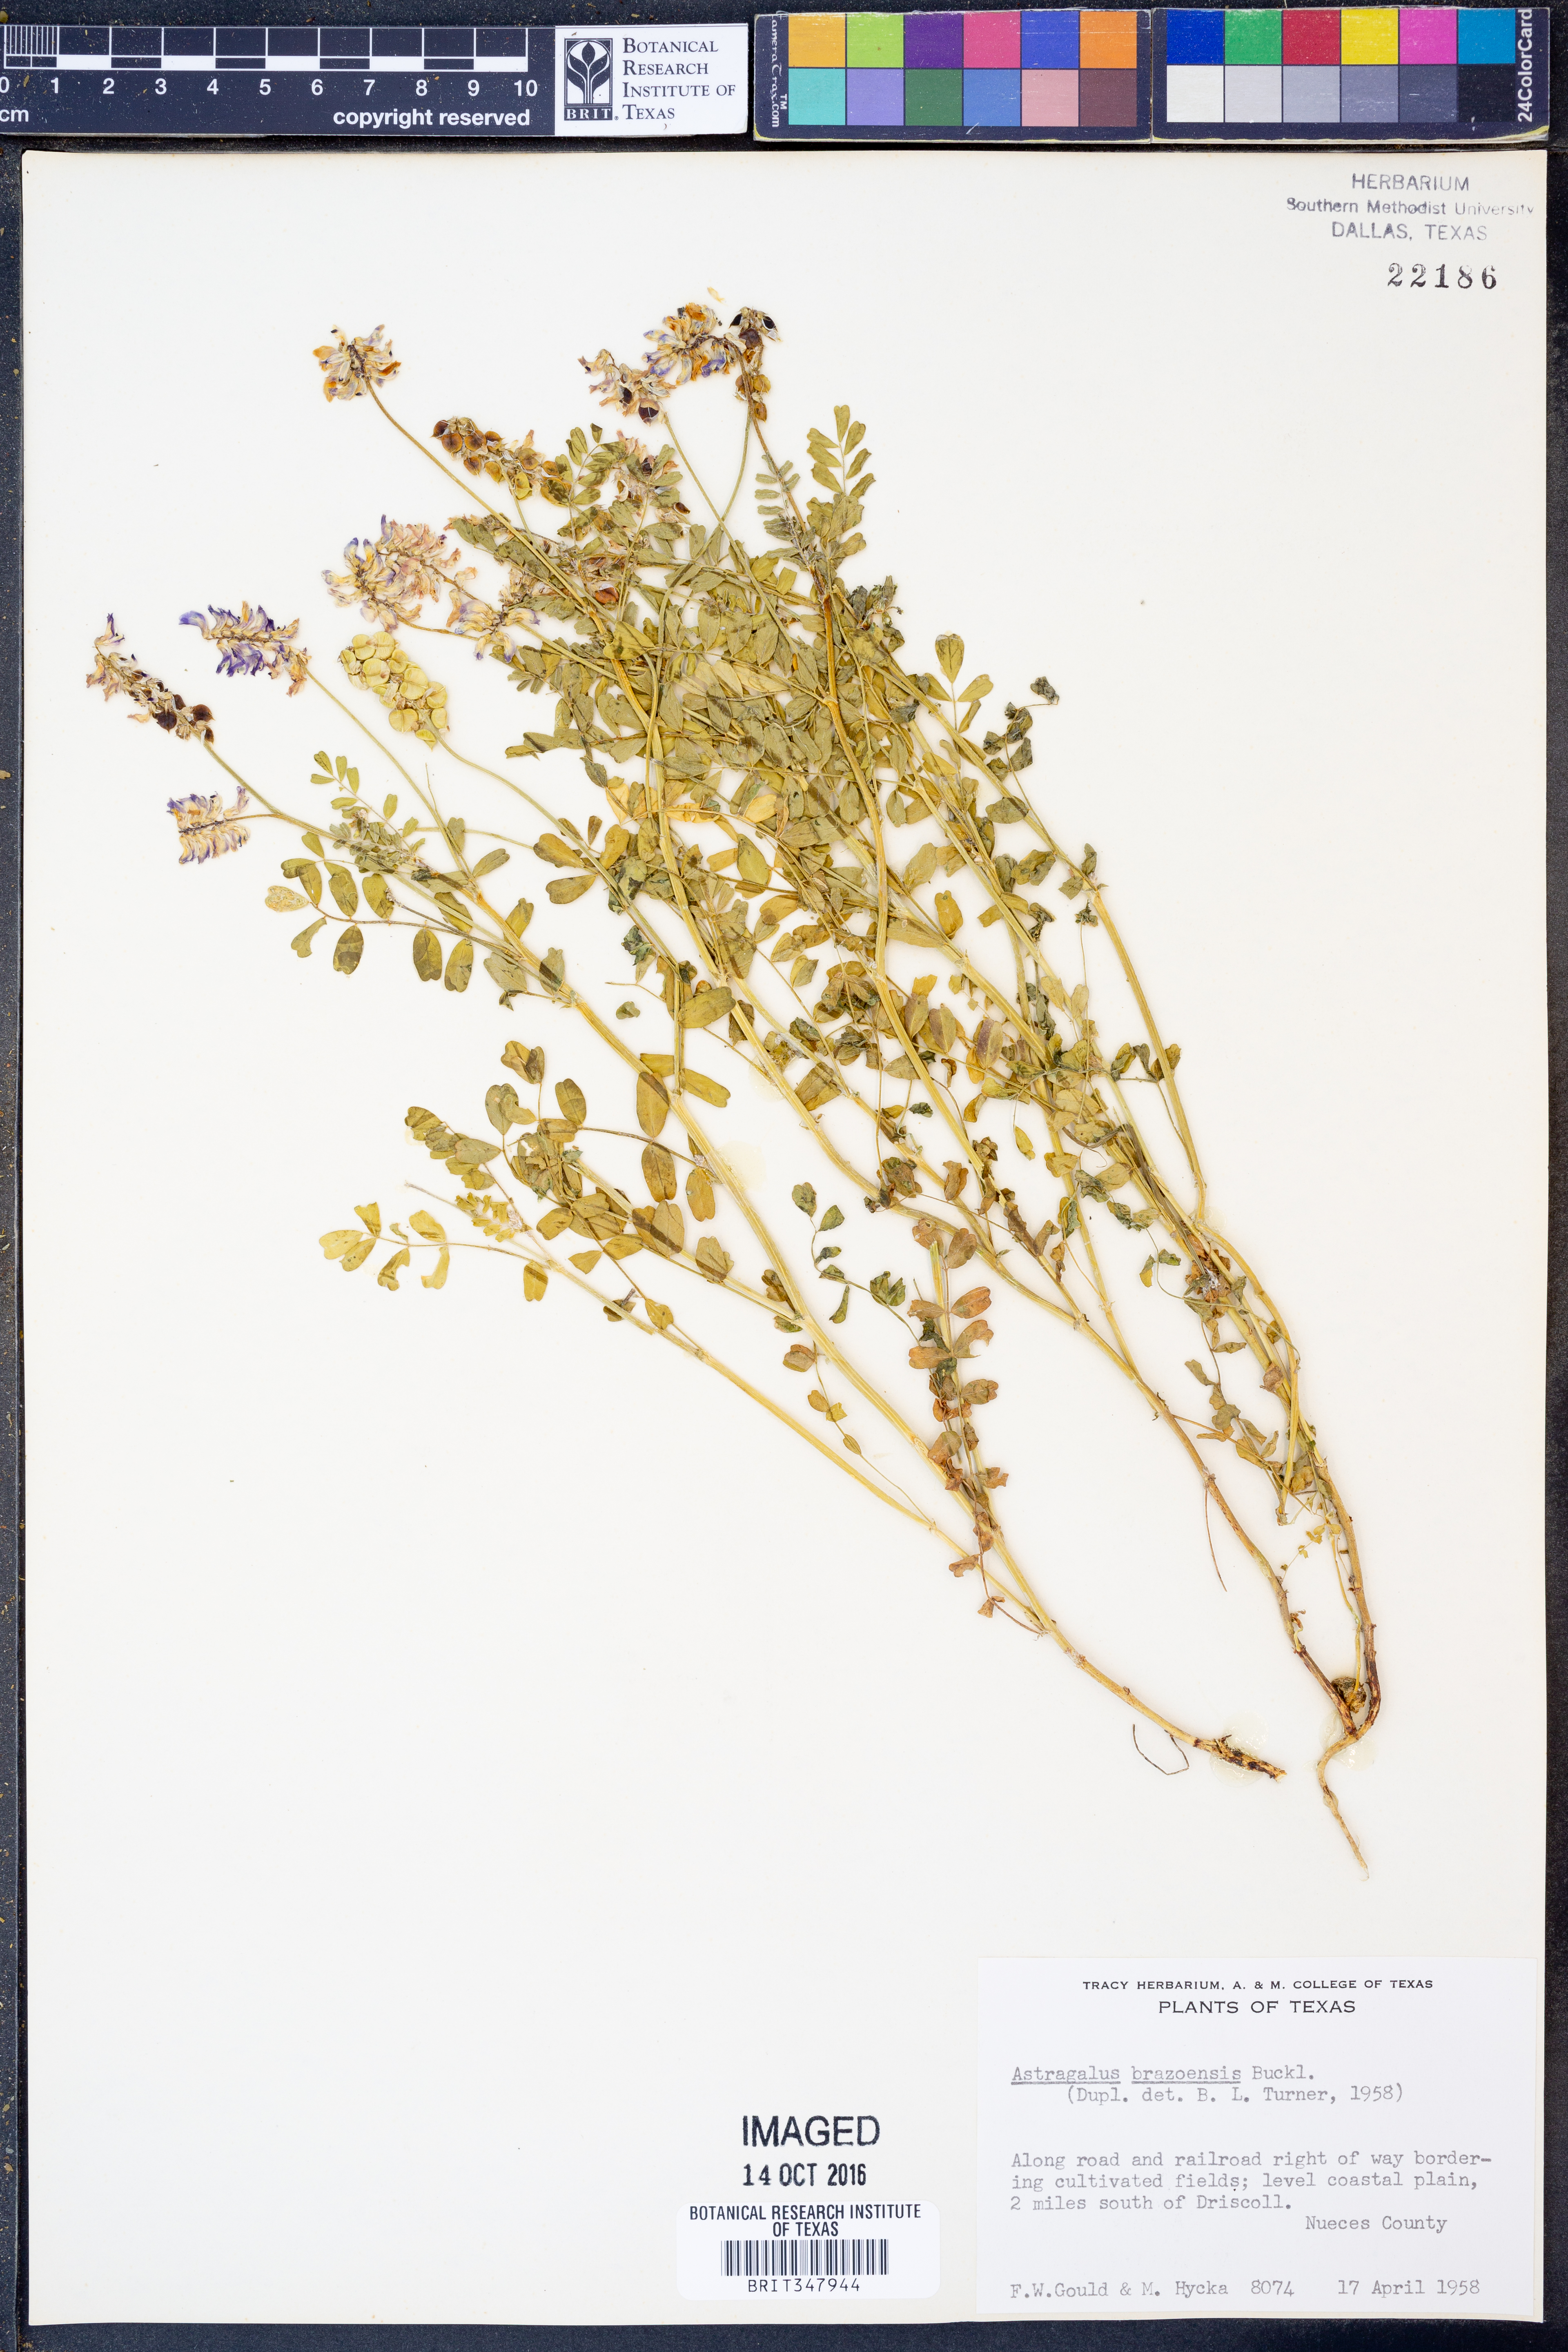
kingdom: Plantae
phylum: Tracheophyta
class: Magnoliopsida
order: Fabales
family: Fabaceae
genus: Astragalus
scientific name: Astragalus brazoensis
